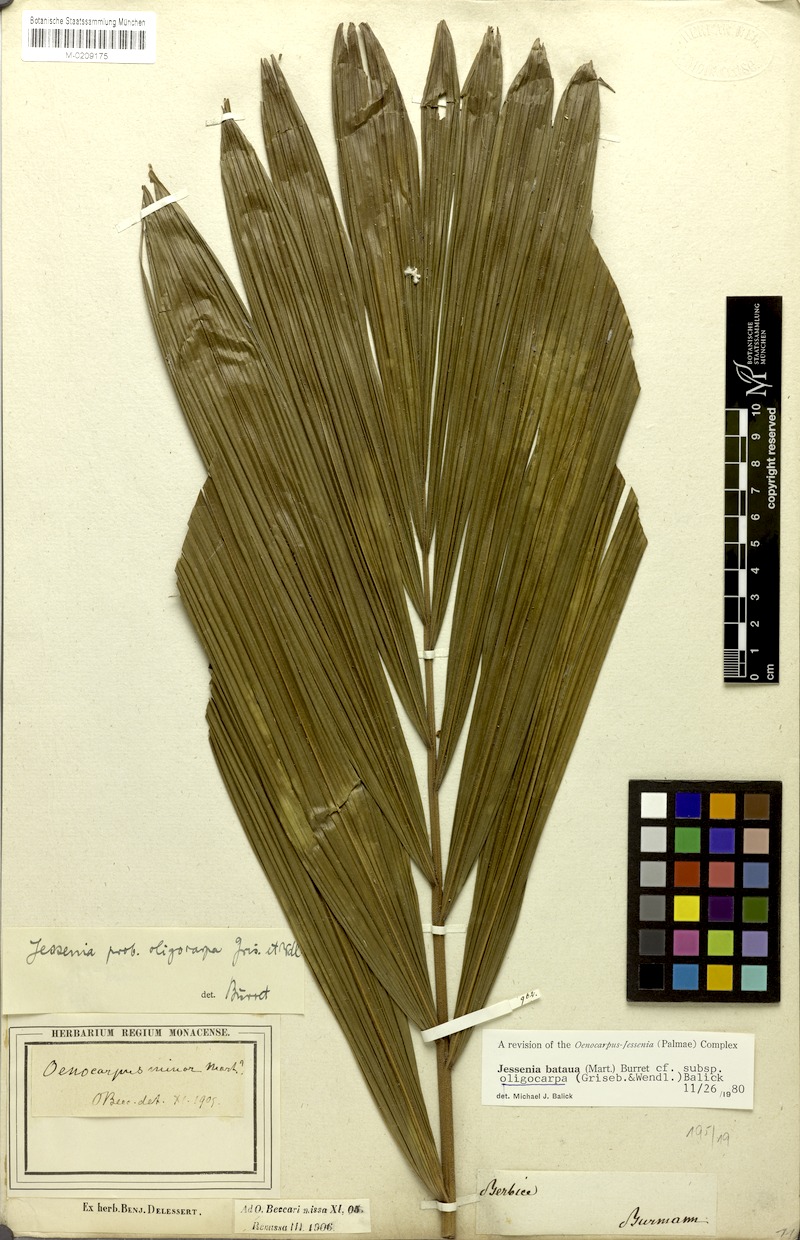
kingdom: Plantae
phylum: Tracheophyta
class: Liliopsida
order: Arecales
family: Arecaceae
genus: Oenocarpus
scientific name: Oenocarpus bataua
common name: Bataua palm
